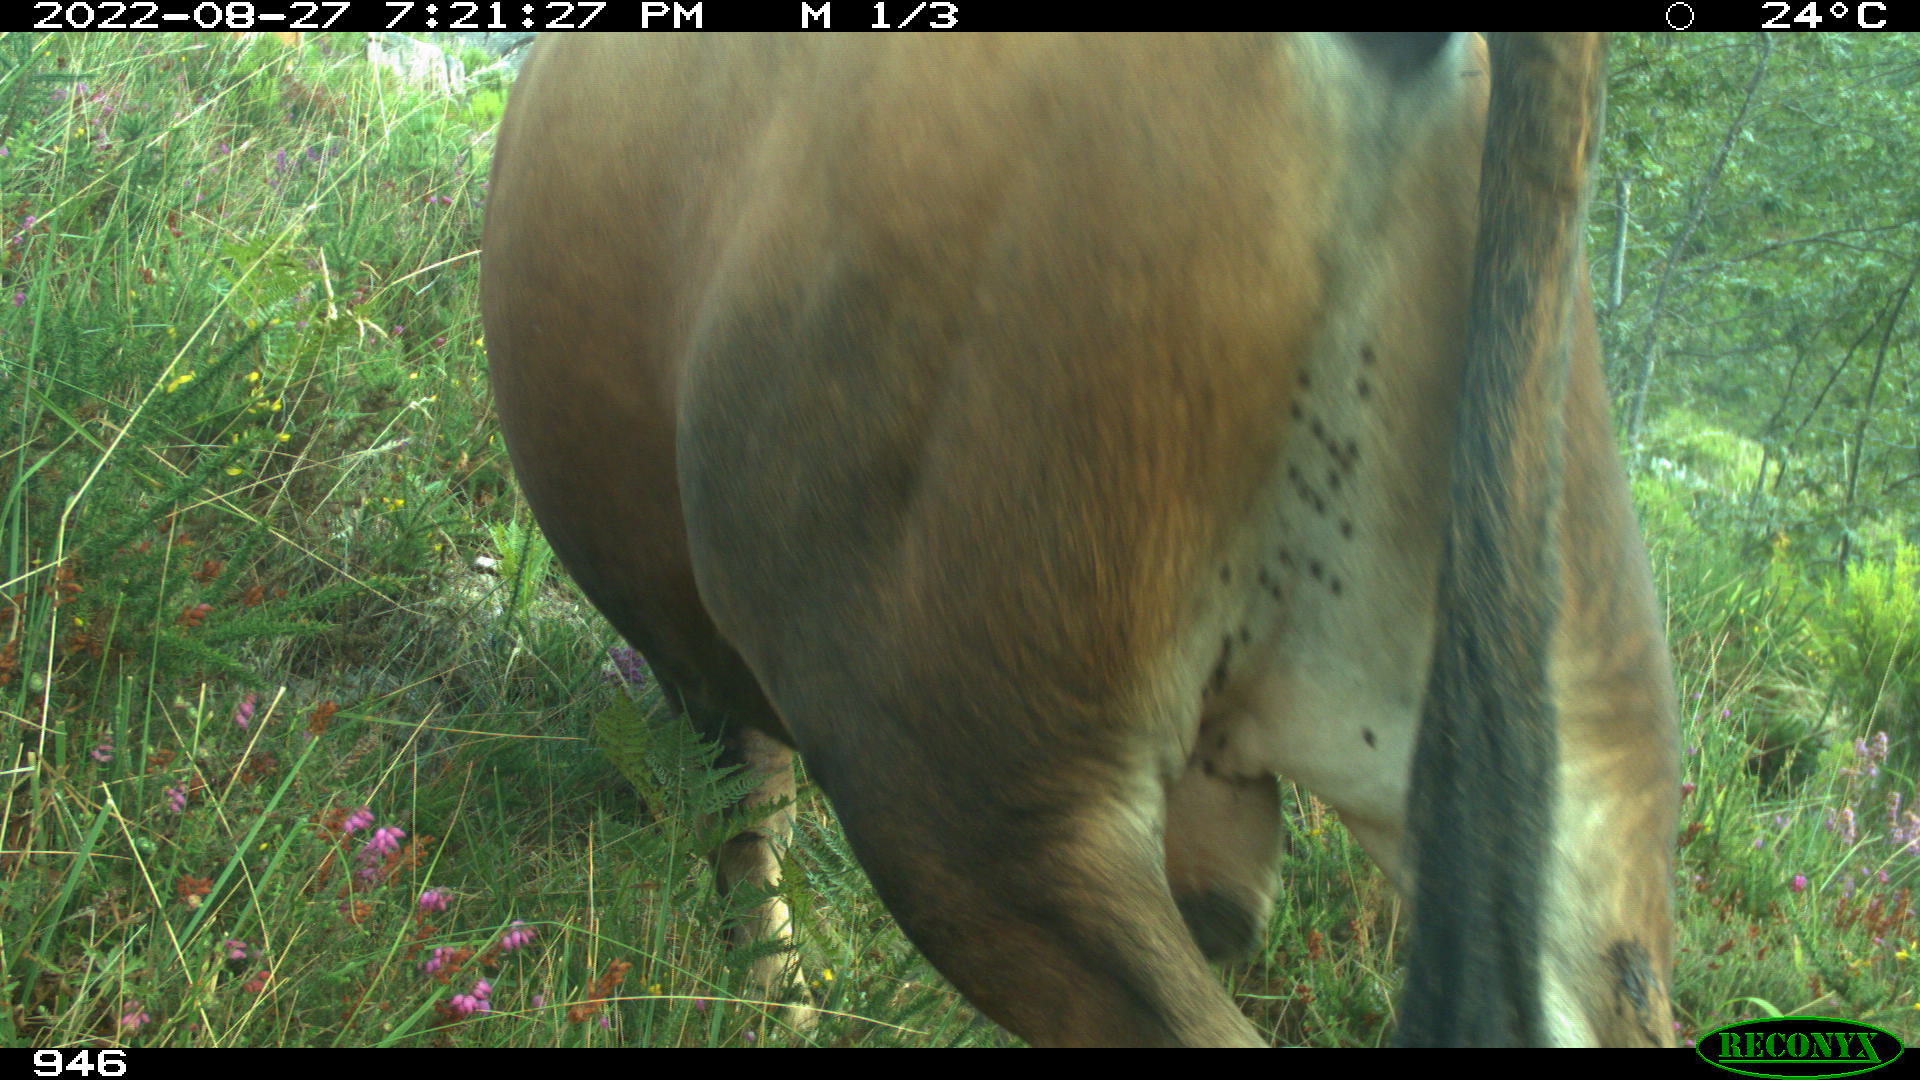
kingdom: Animalia
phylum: Chordata
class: Mammalia
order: Artiodactyla
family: Bovidae
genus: Bos
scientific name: Bos taurus
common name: Domesticated cattle
